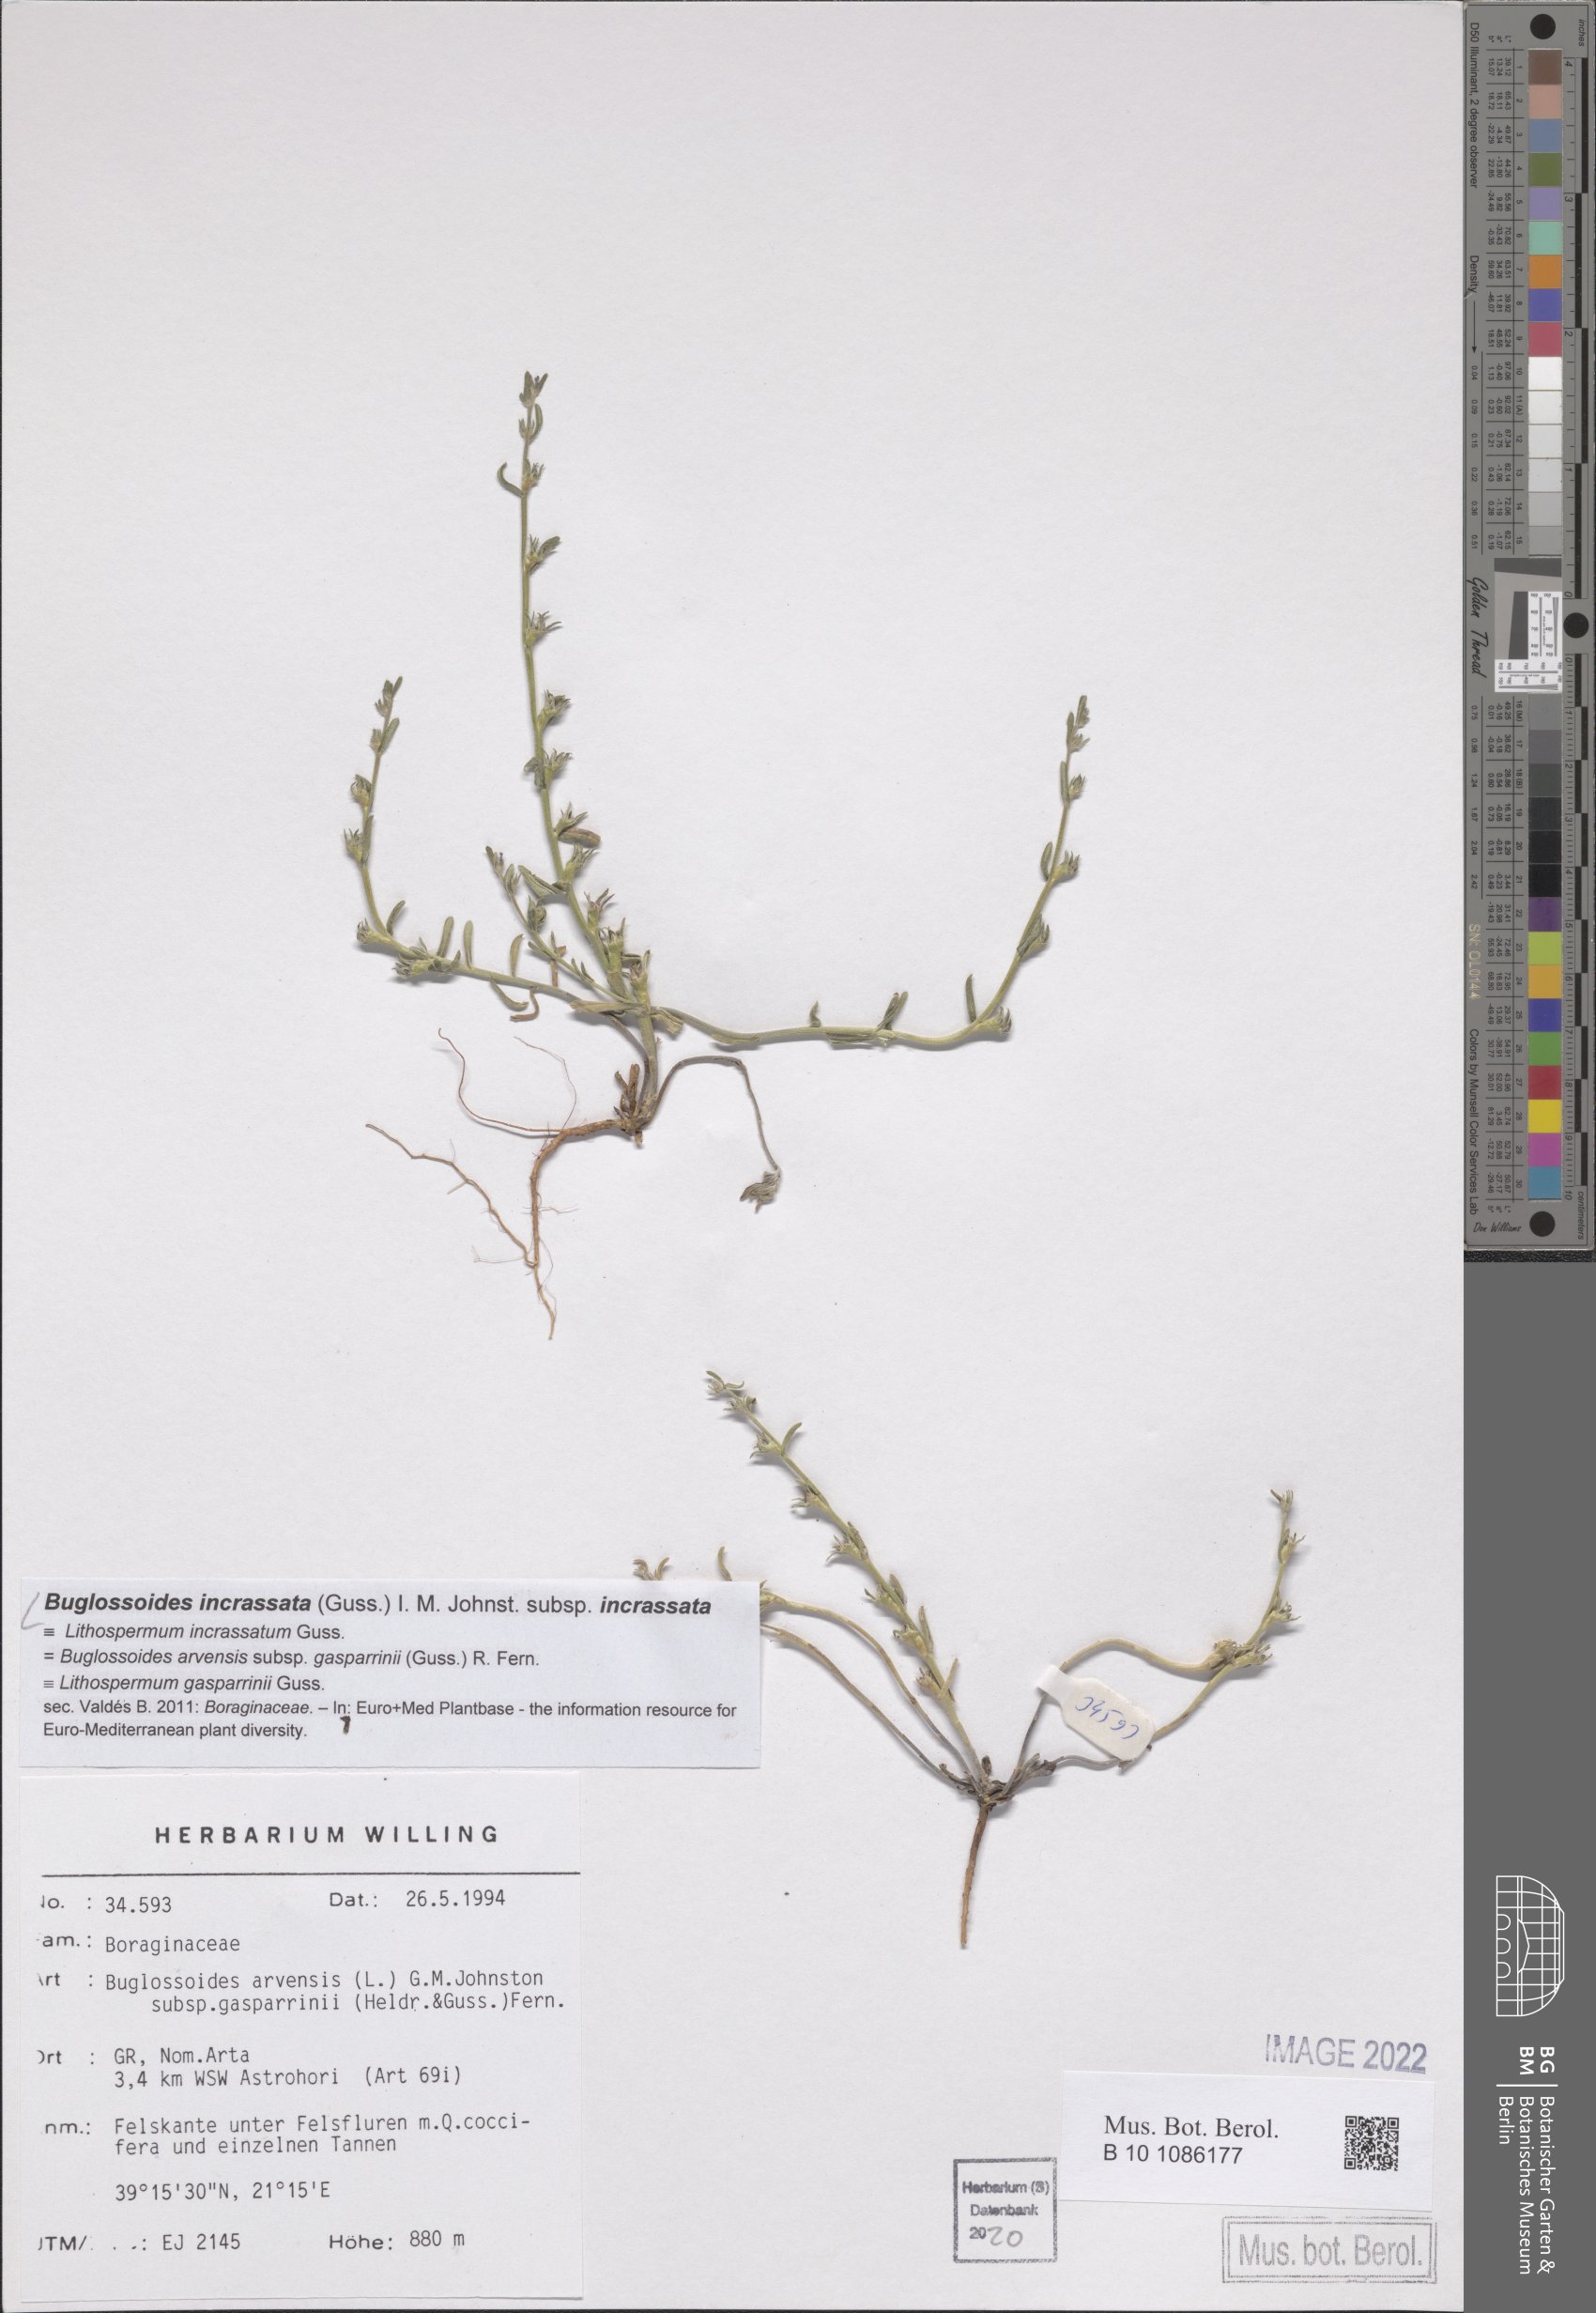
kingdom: Plantae
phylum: Tracheophyta
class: Magnoliopsida
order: Boraginales
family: Boraginaceae
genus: Buglossoides
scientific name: Buglossoides incrassata
